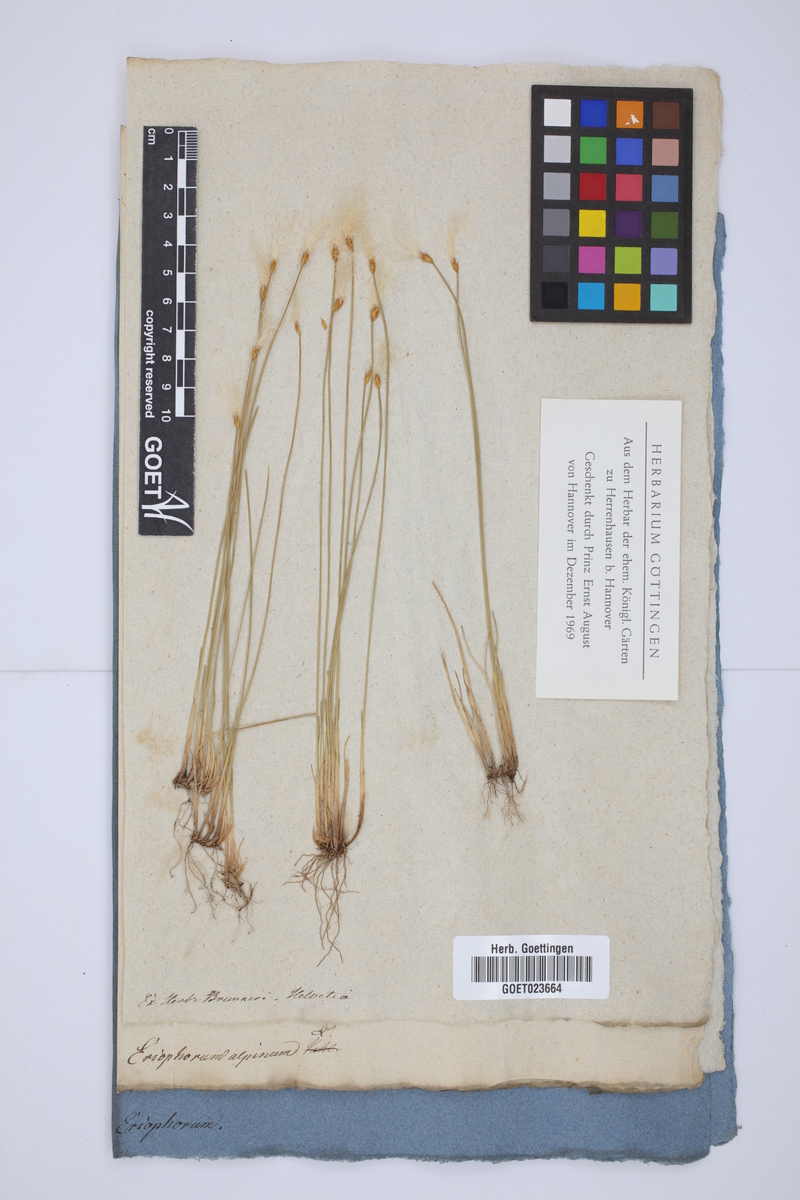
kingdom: Plantae
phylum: Tracheophyta
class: Liliopsida
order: Poales
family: Cyperaceae
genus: Trichophorum
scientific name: Trichophorum alpinum
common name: Alpine bulrush
